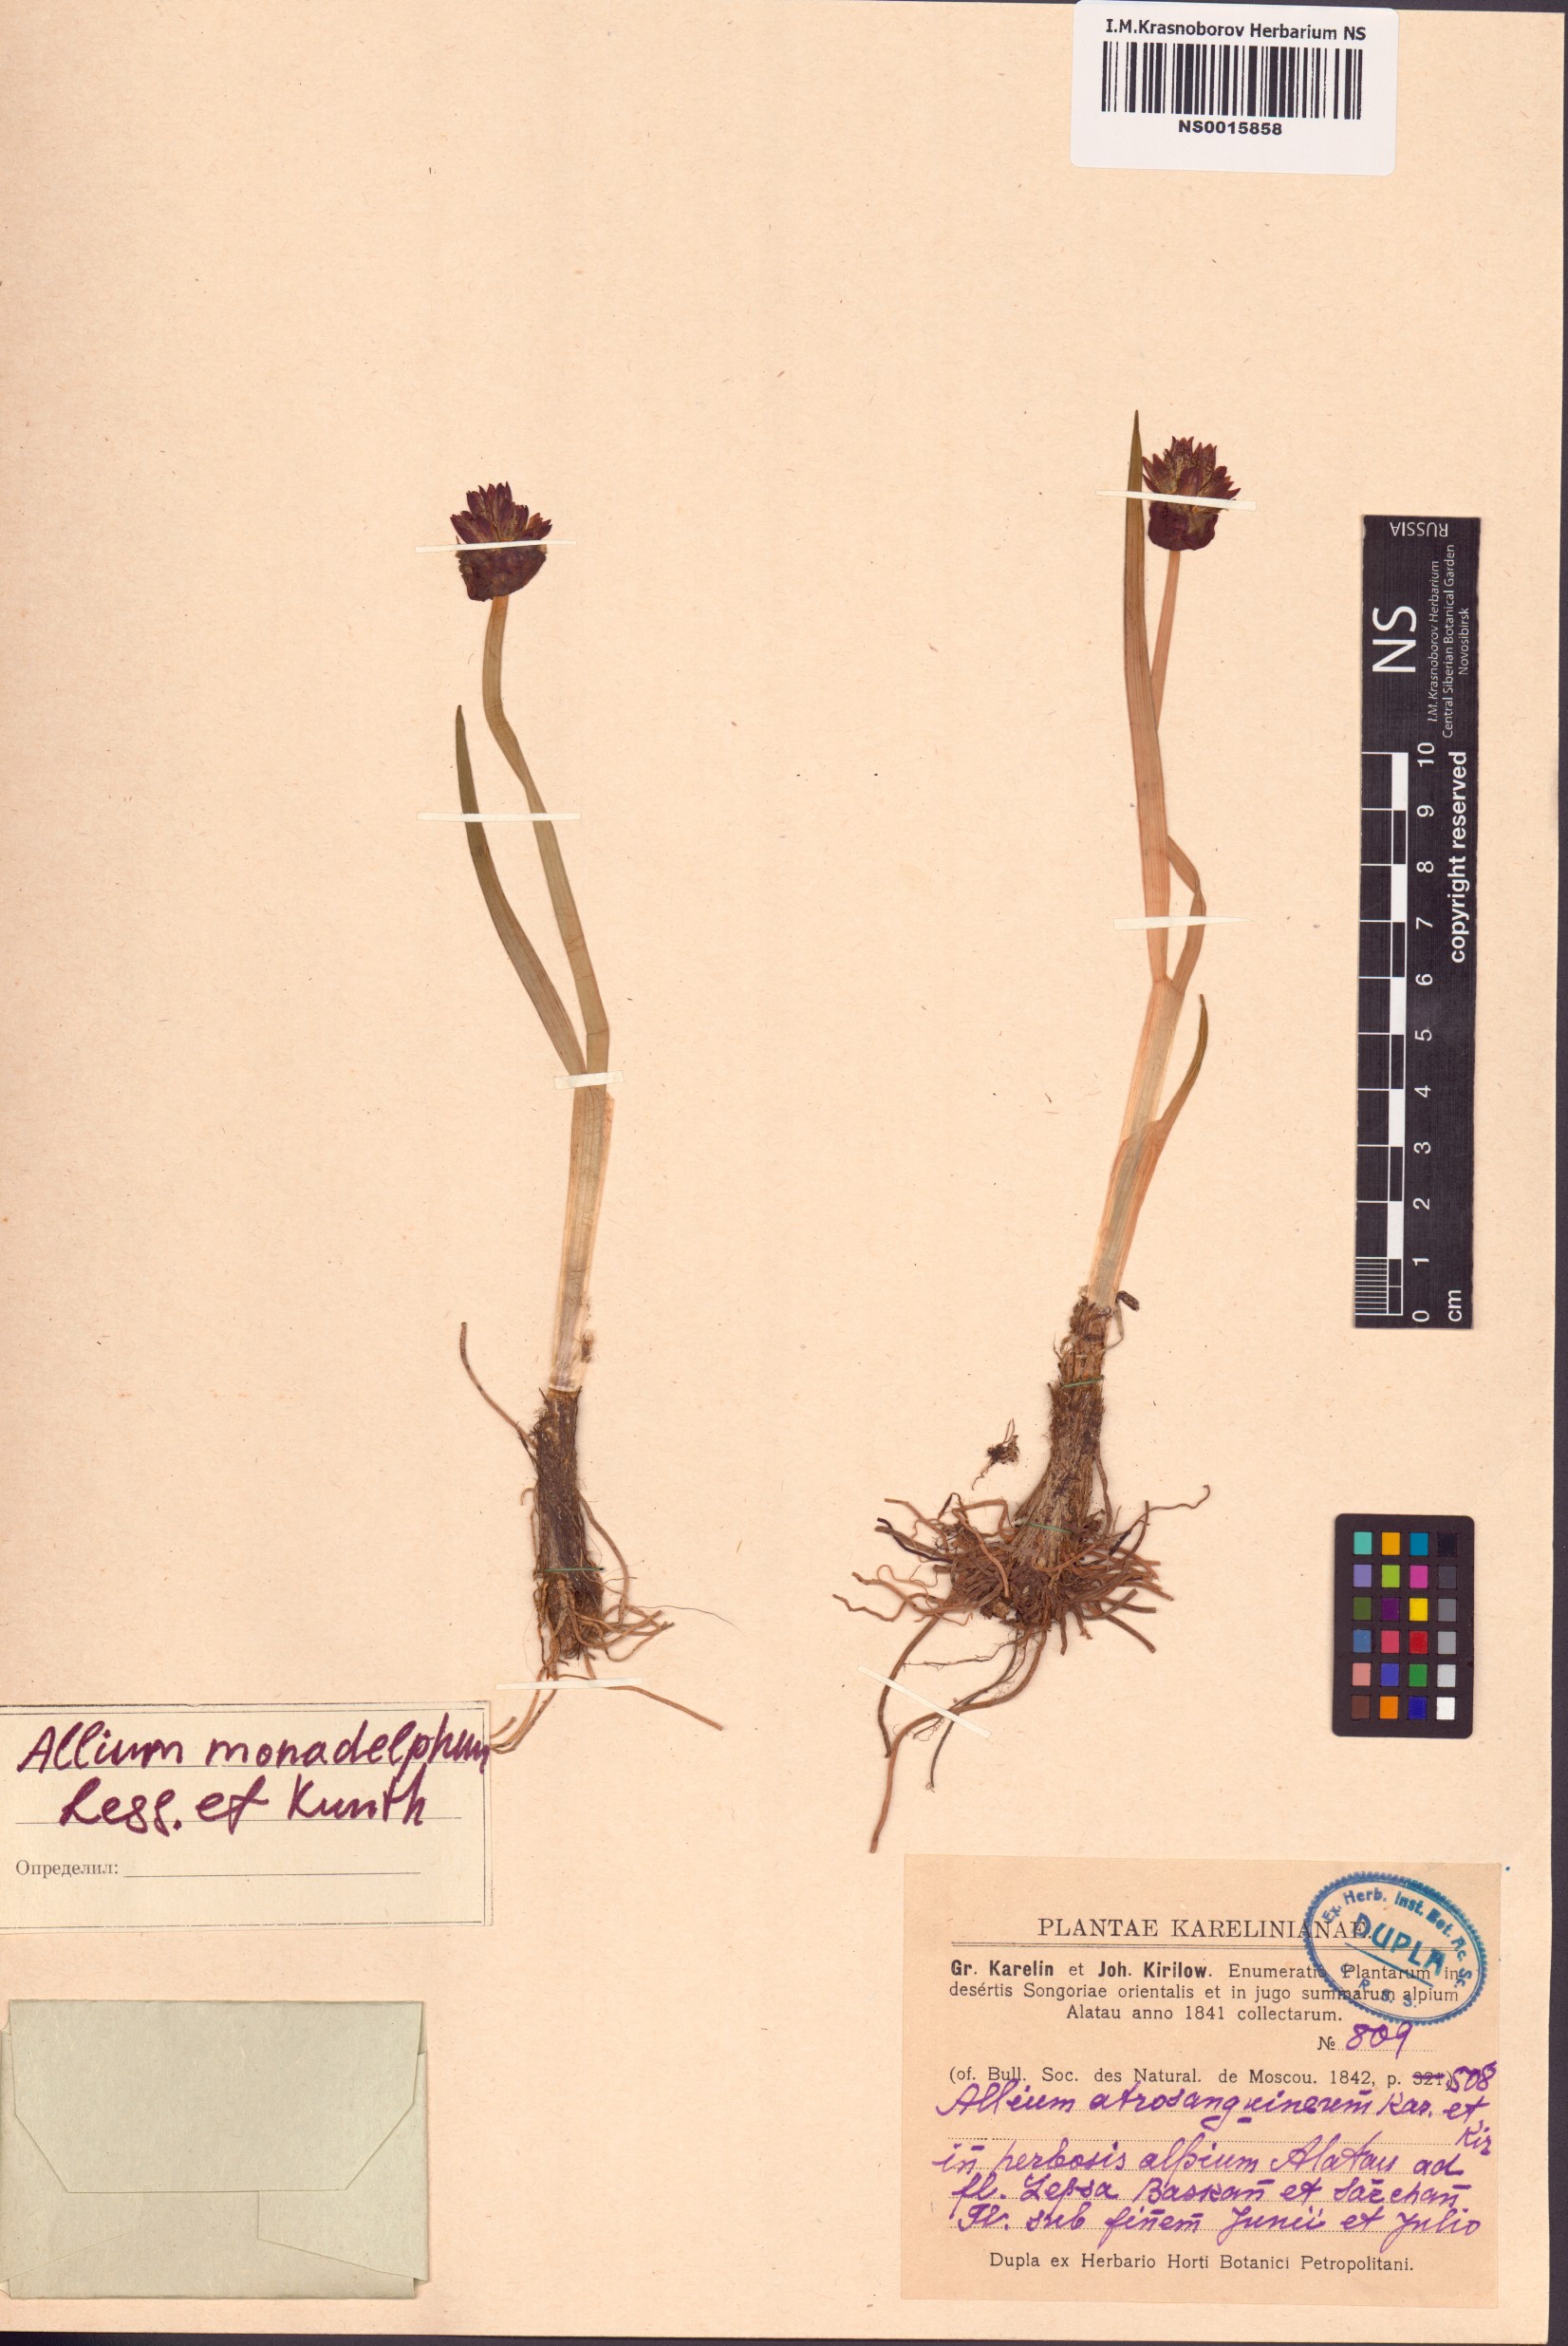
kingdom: Plantae
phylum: Tracheophyta
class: Liliopsida
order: Asparagales
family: Amaryllidaceae
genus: Allium
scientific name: Allium atrosanguineum
